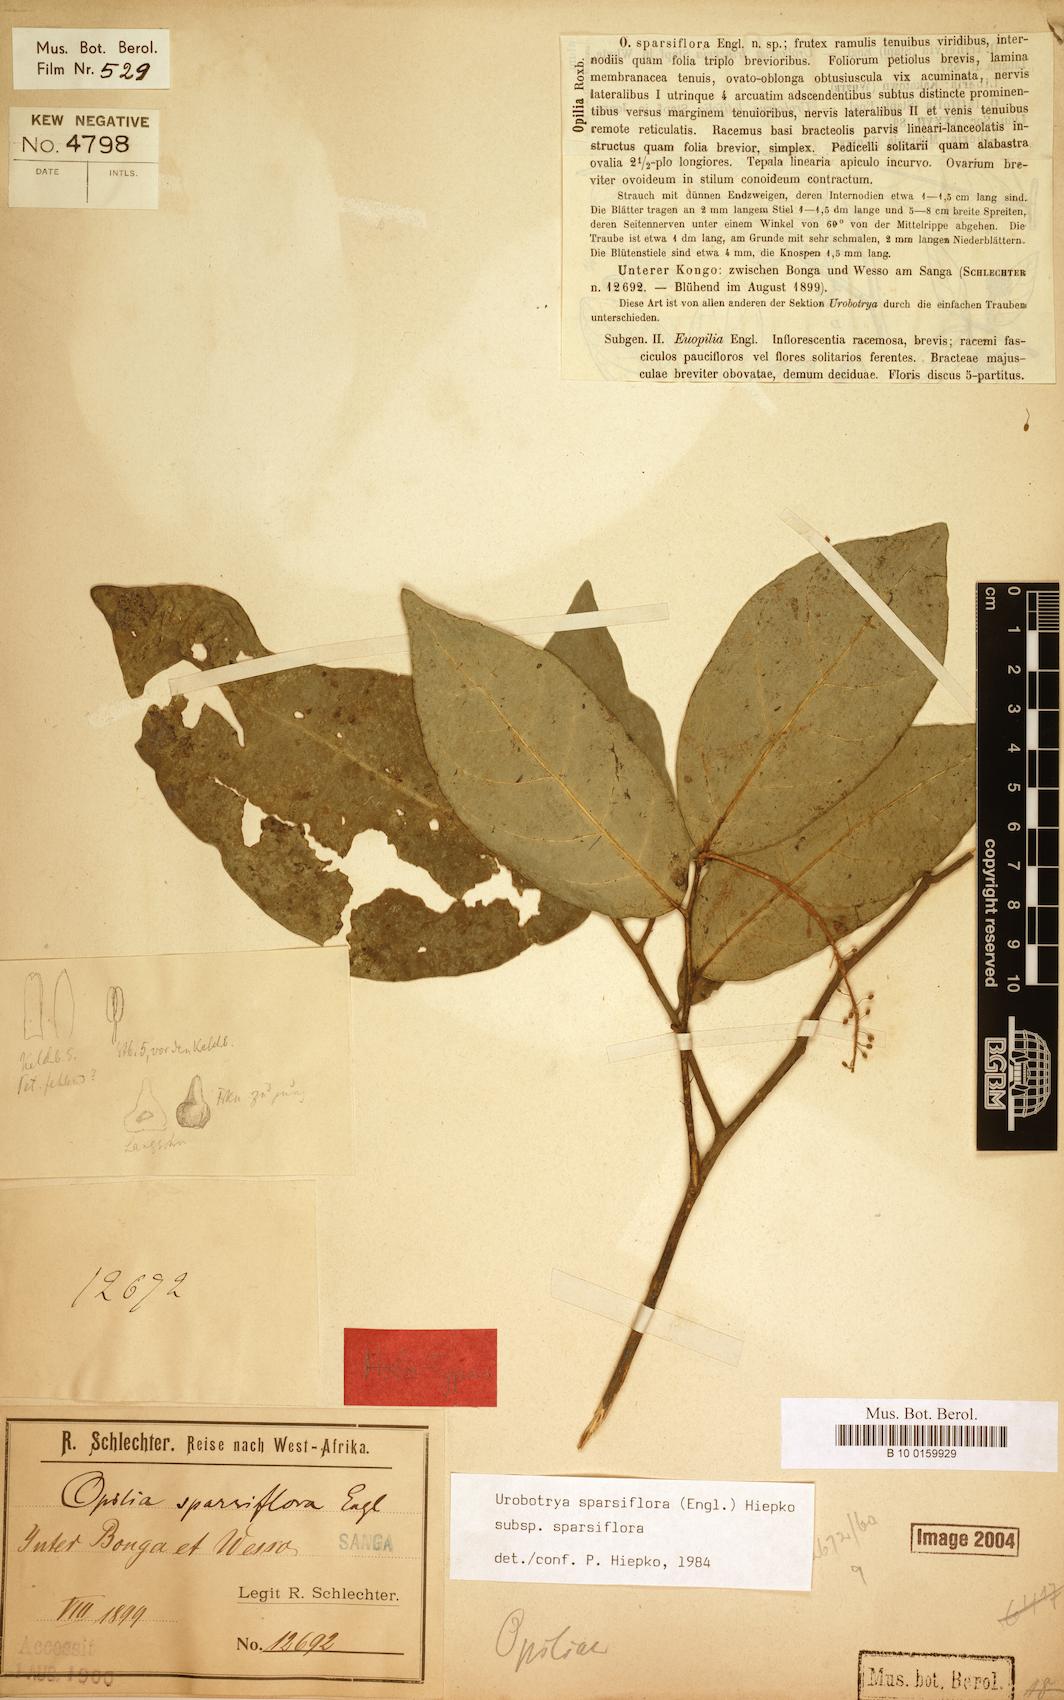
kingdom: Plantae
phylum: Tracheophyta
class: Magnoliopsida
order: Santalales
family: Opiliaceae
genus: Urobotrya
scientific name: Urobotrya sparsiflora
